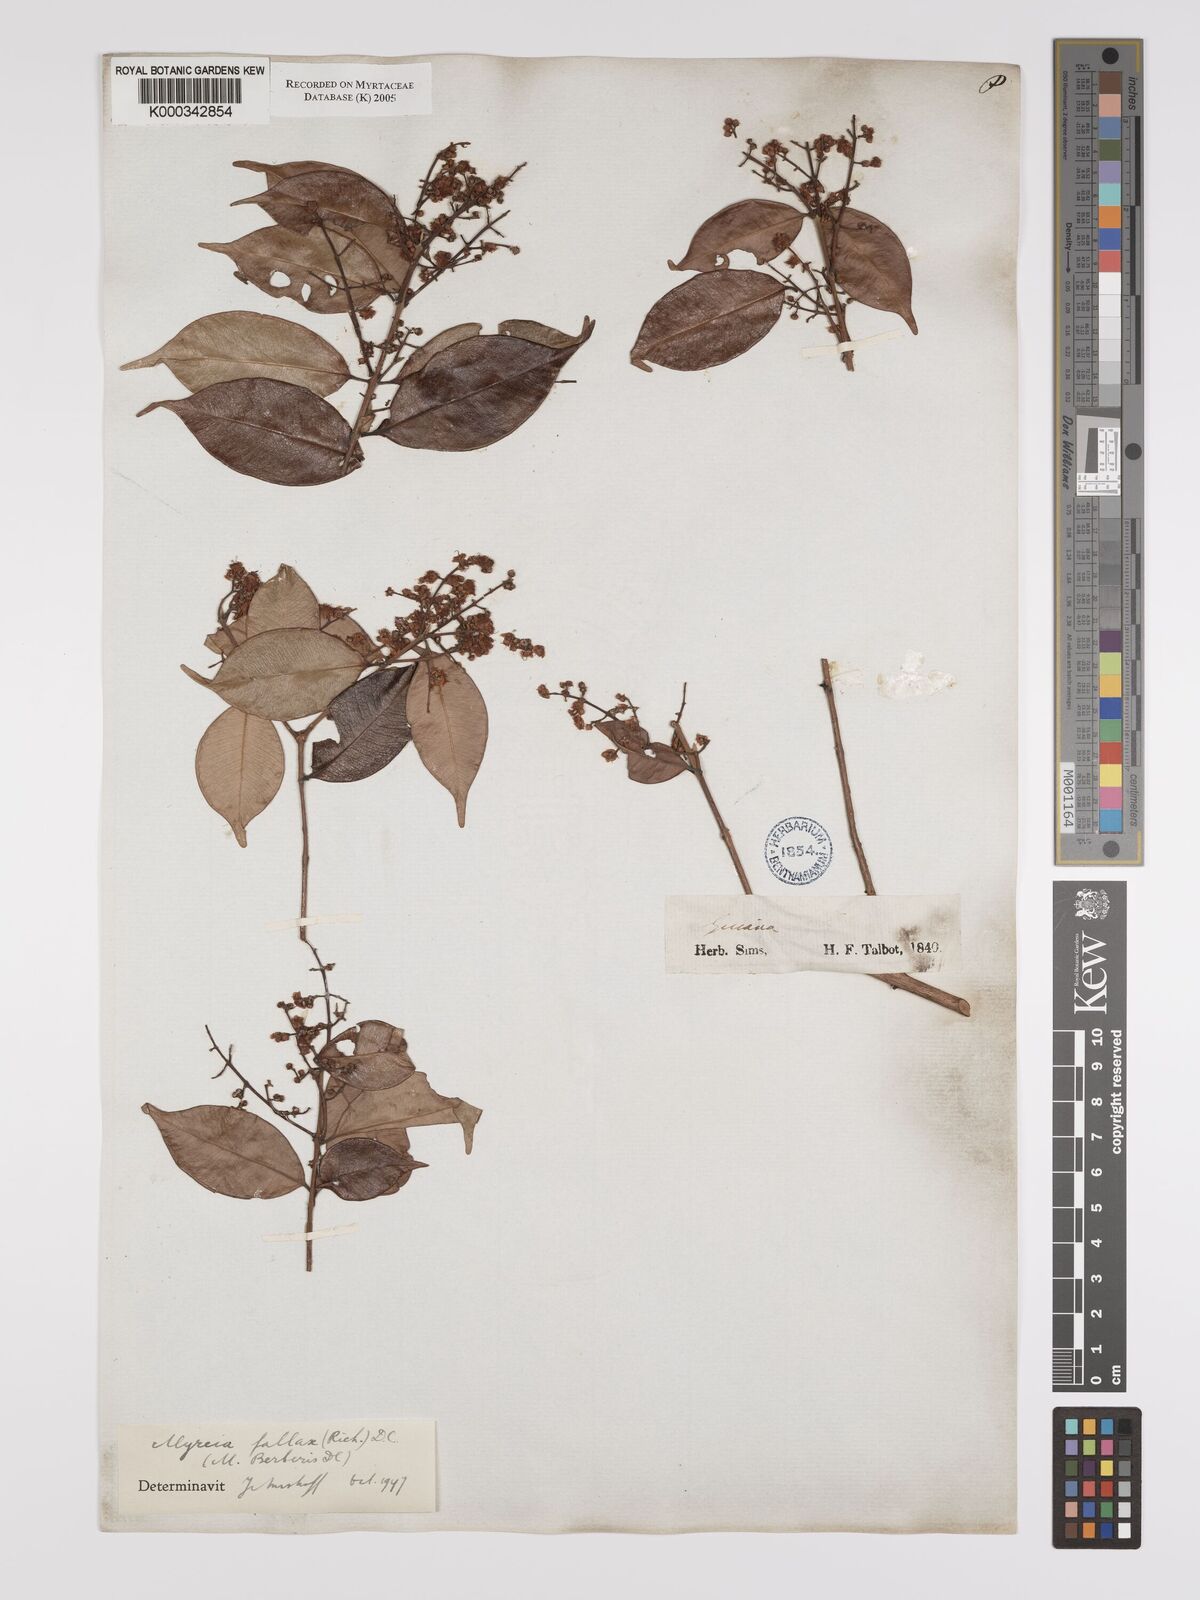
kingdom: Plantae
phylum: Tracheophyta
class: Magnoliopsida
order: Myrtales
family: Myrtaceae
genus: Myrcia
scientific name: Myrcia splendens
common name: Surinam cherry
